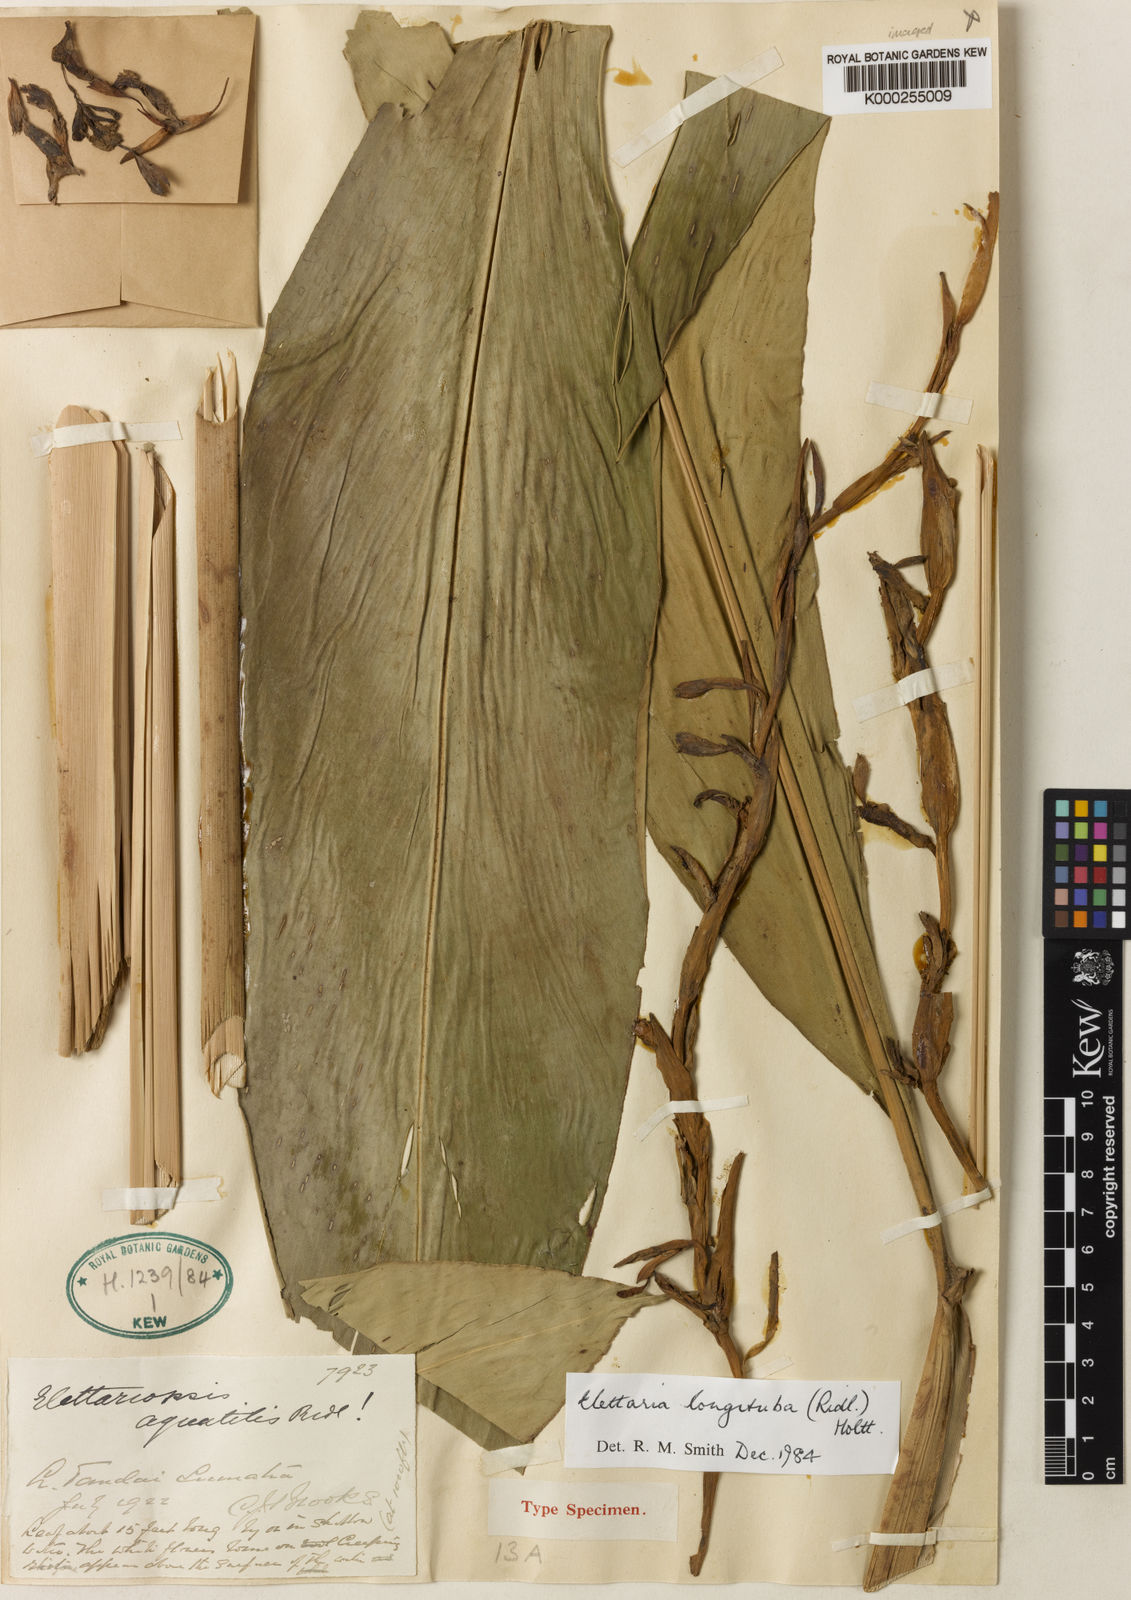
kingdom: Plantae
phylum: Tracheophyta
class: Liliopsida
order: Zingiberales
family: Zingiberaceae
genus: Sulettaria
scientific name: Sulettaria longituba
